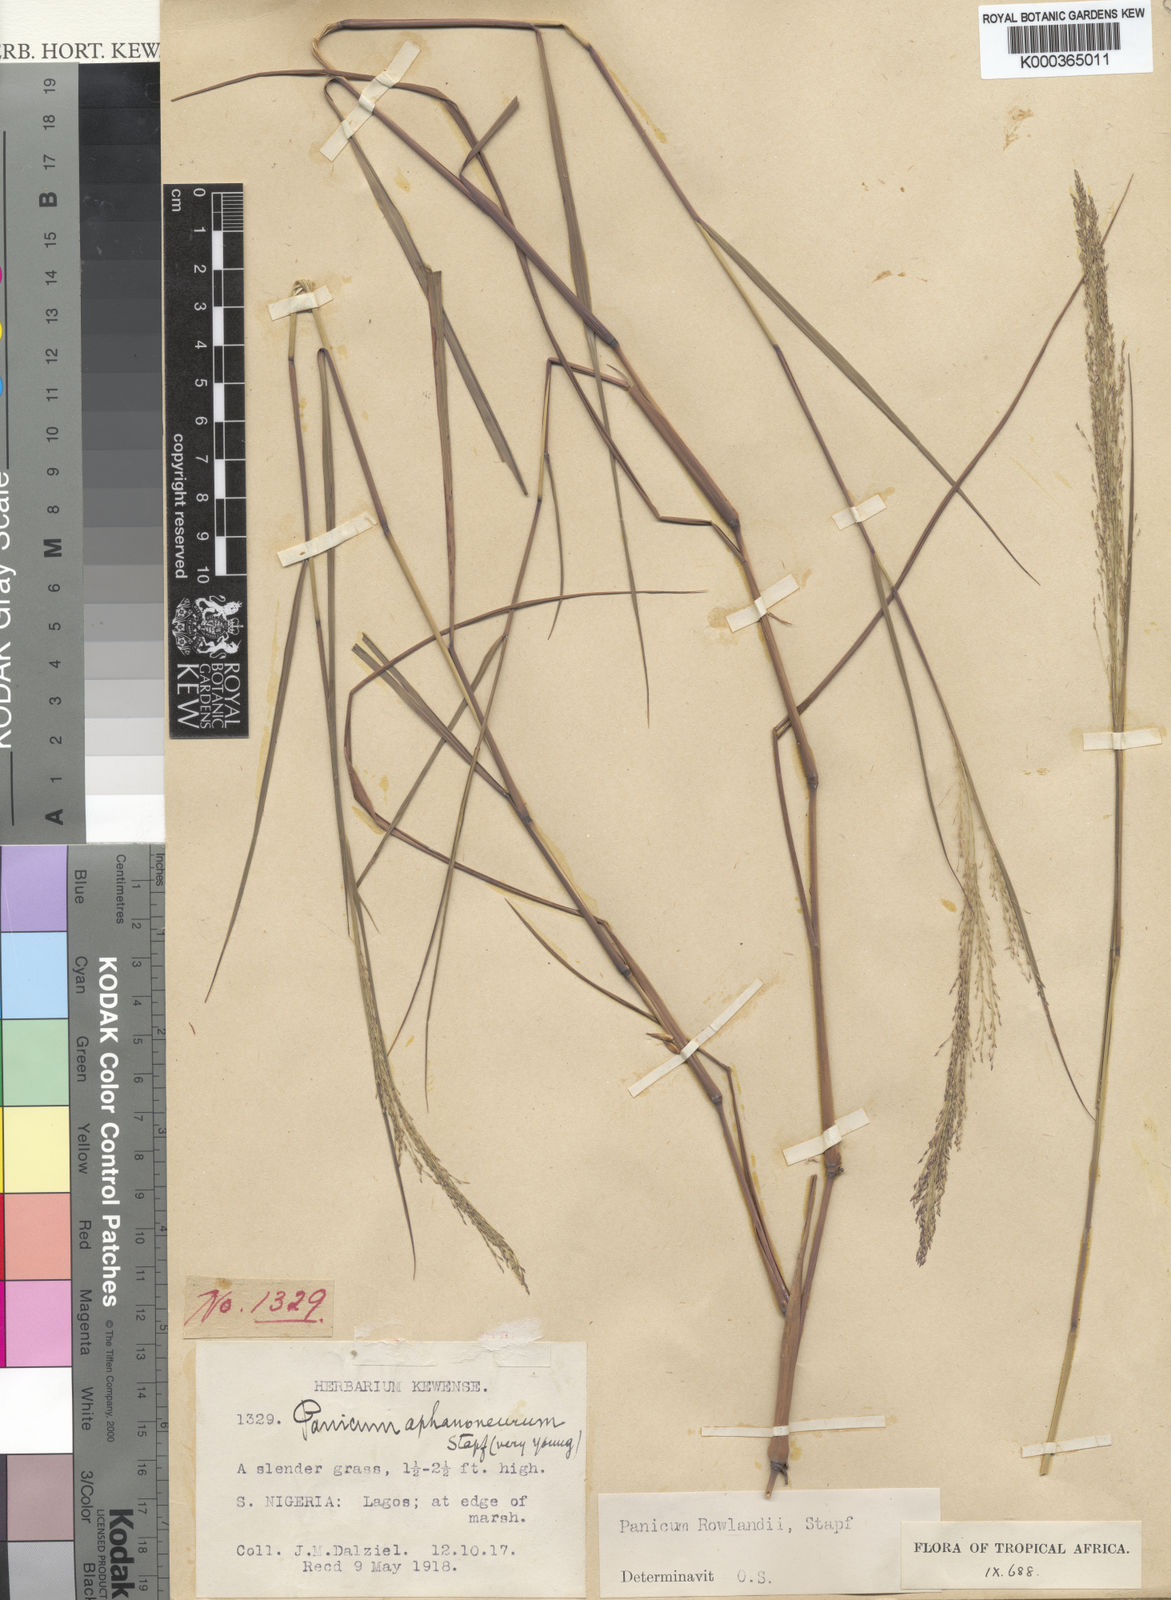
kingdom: Plantae
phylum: Tracheophyta
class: Liliopsida
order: Poales
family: Poaceae
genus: Panicum
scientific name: Panicum fluviicola
